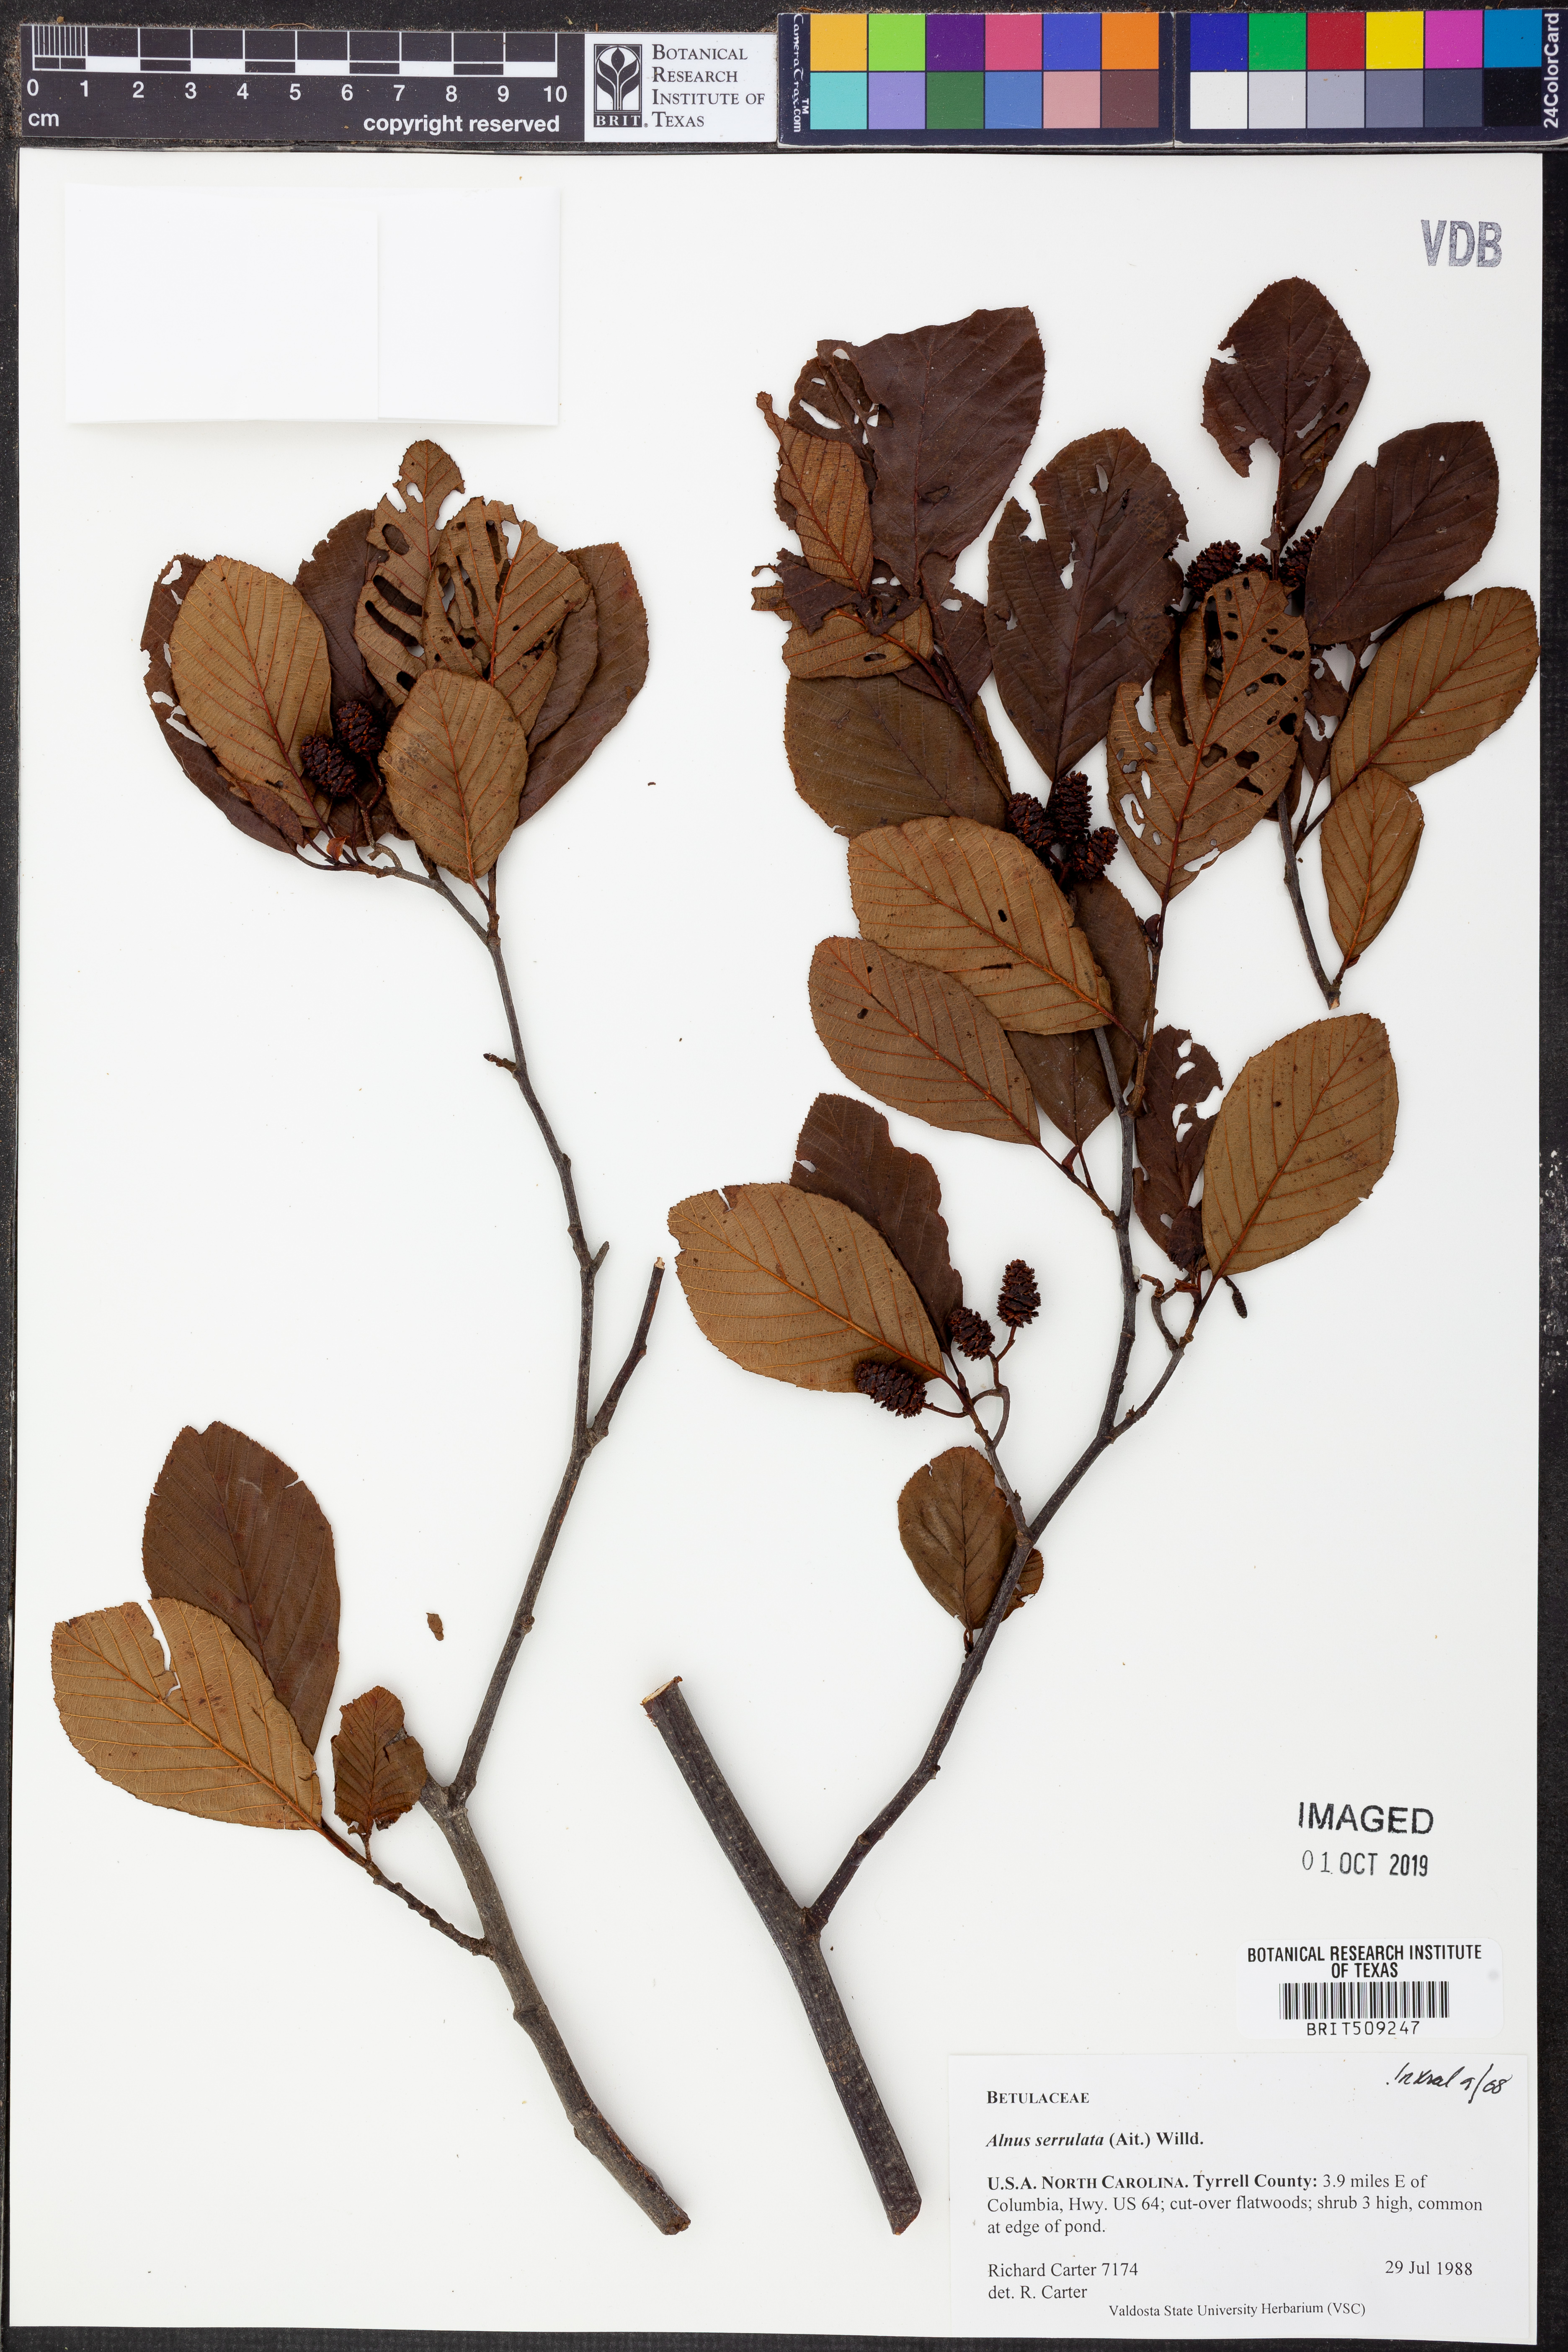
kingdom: Plantae
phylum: Tracheophyta
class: Magnoliopsida
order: Fagales
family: Betulaceae
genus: Alnus
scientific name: Alnus serrulata
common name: Hazel alder
